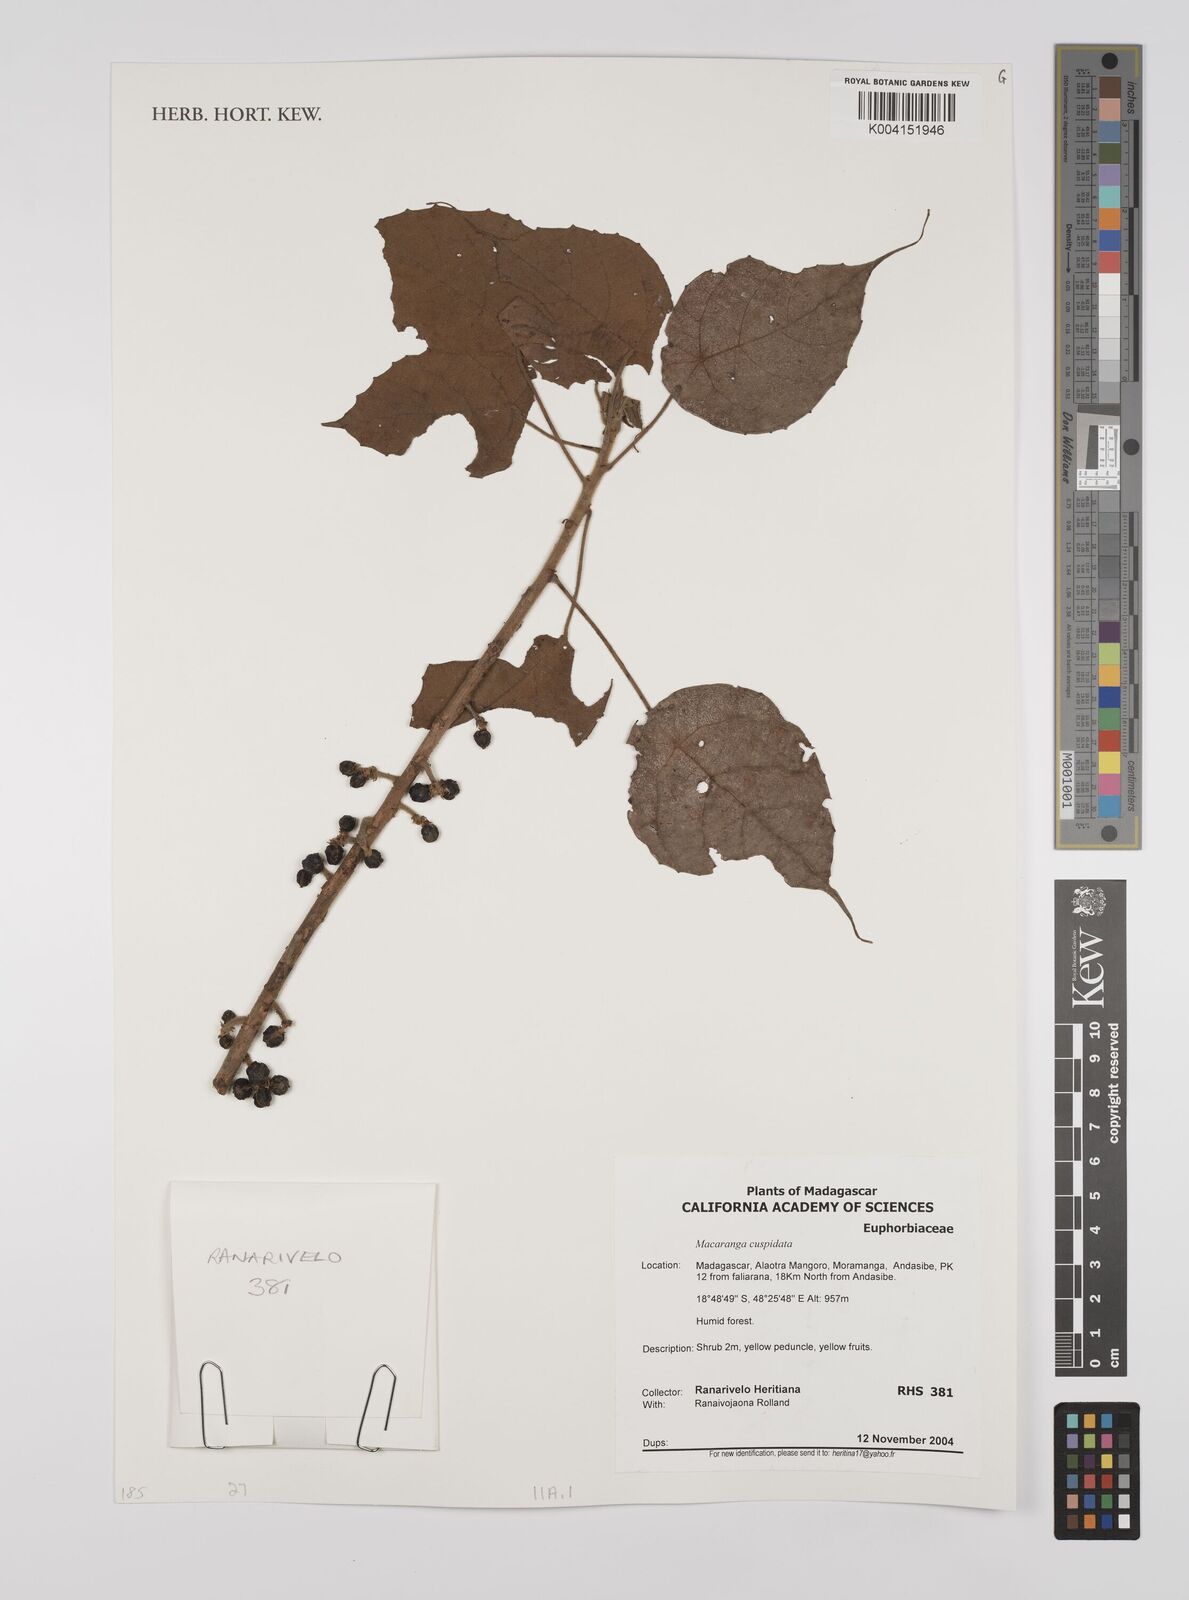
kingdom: Plantae
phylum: Tracheophyta
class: Magnoliopsida
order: Malpighiales
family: Euphorbiaceae
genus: Macaranga
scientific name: Macaranga cuspidata
